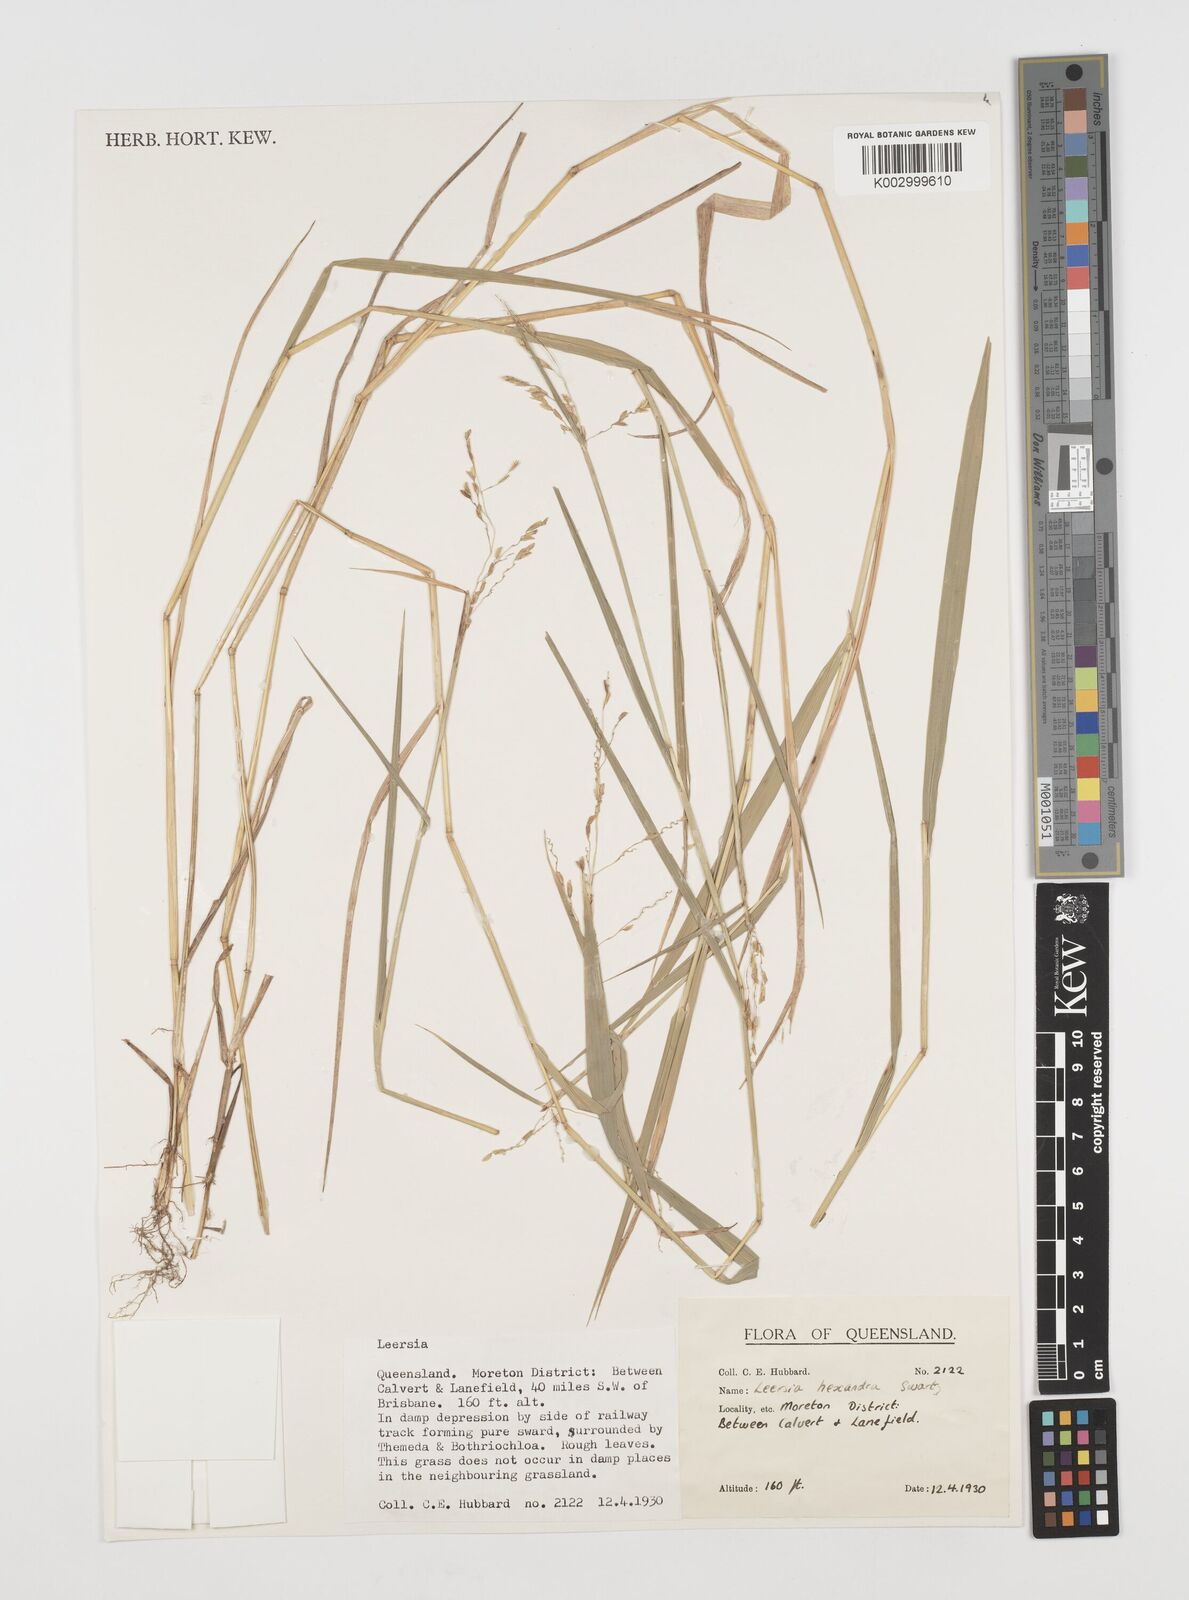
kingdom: Plantae
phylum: Tracheophyta
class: Liliopsida
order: Poales
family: Poaceae
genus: Leersia
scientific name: Leersia hexandra
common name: Southern cut grass
